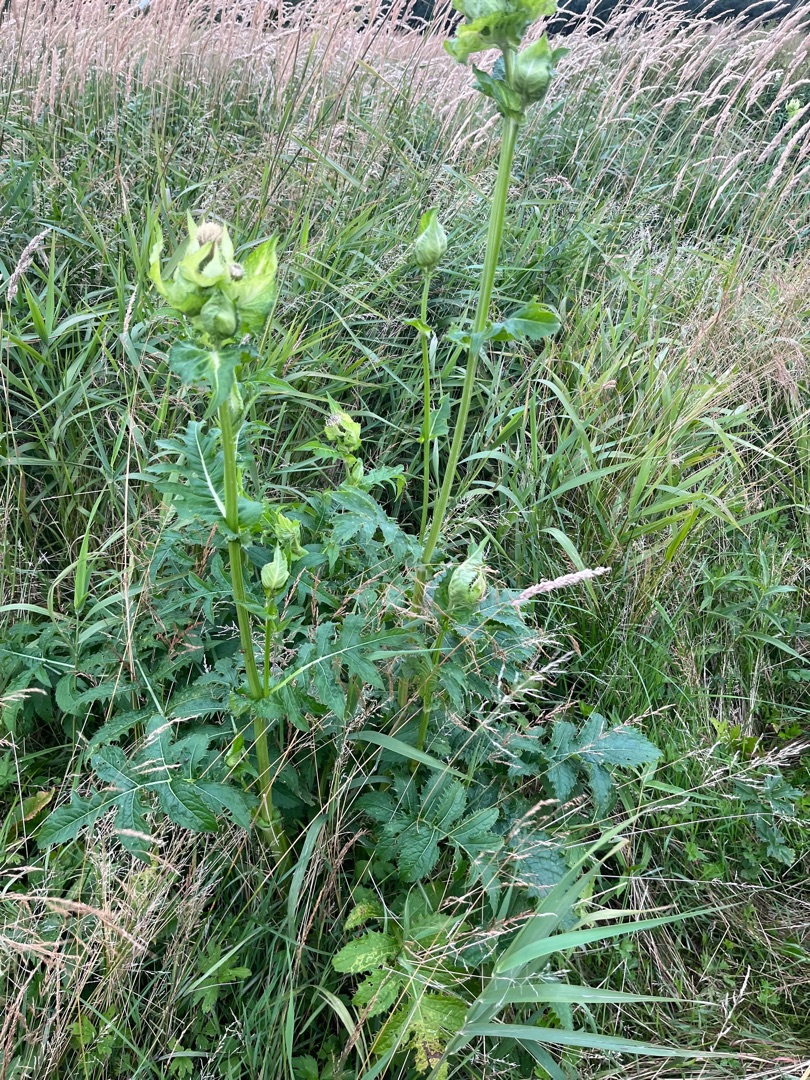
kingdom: Plantae
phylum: Tracheophyta
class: Magnoliopsida
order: Asterales
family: Asteraceae
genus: Cirsium
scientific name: Cirsium oleraceum
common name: Kål-tidsel
